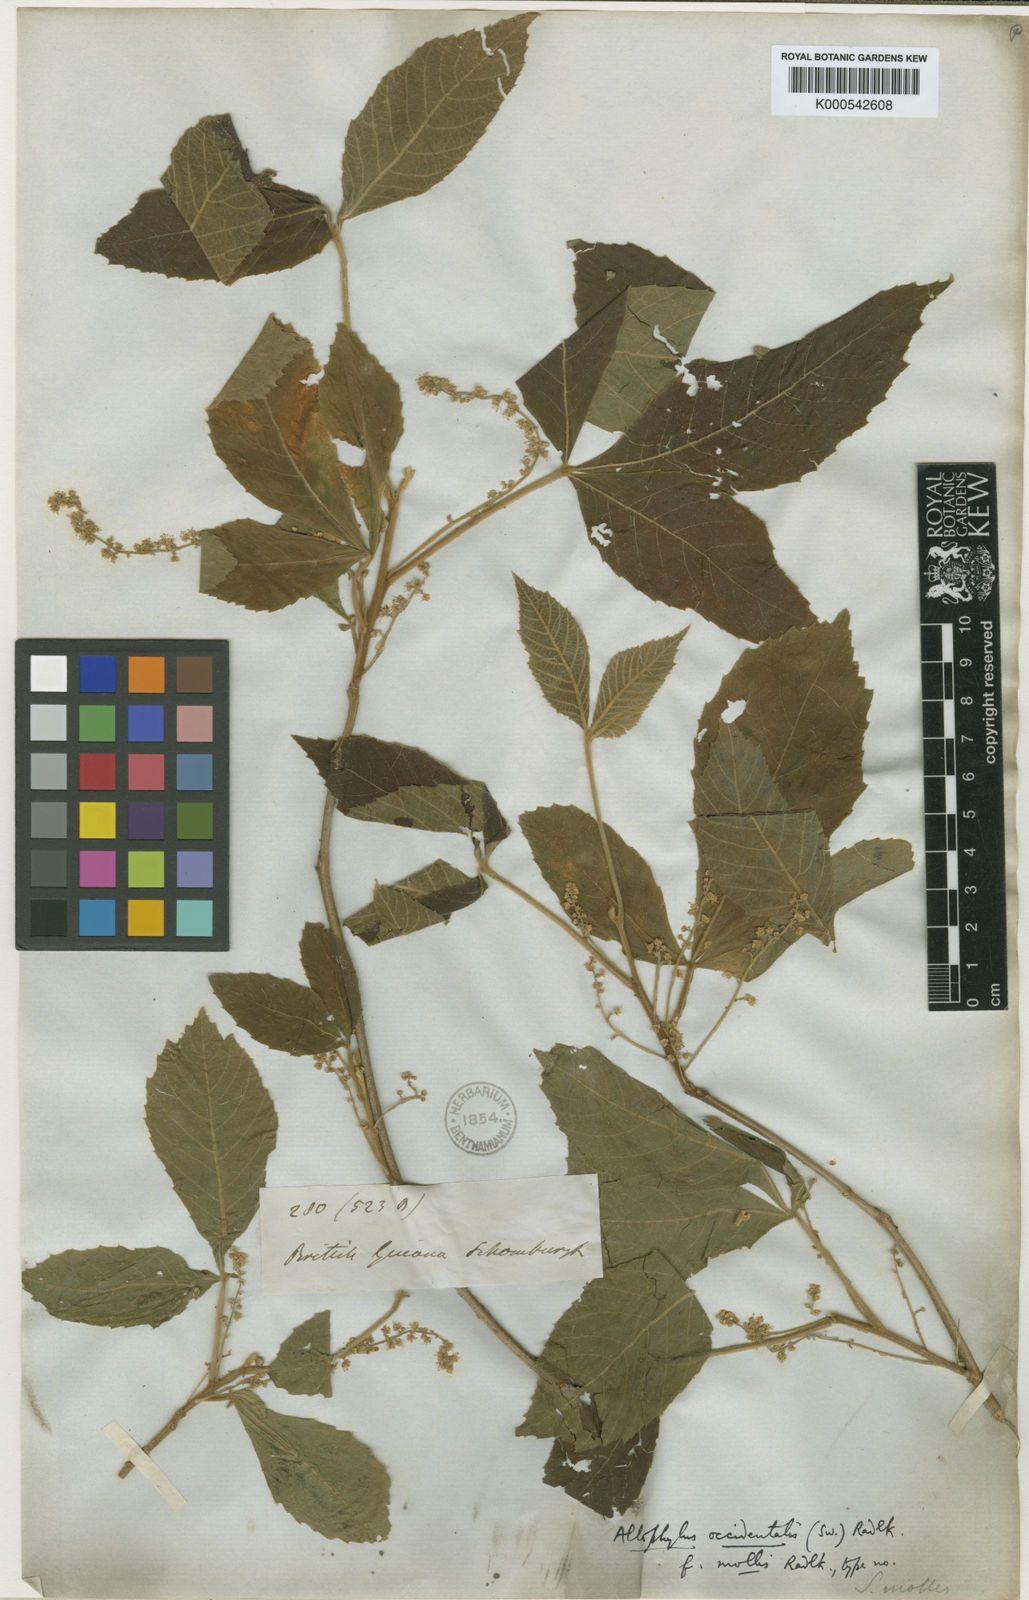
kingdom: Plantae
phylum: Tracheophyta
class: Magnoliopsida
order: Sapindales
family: Sapindaceae
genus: Allophylus
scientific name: Allophylus racemosus
